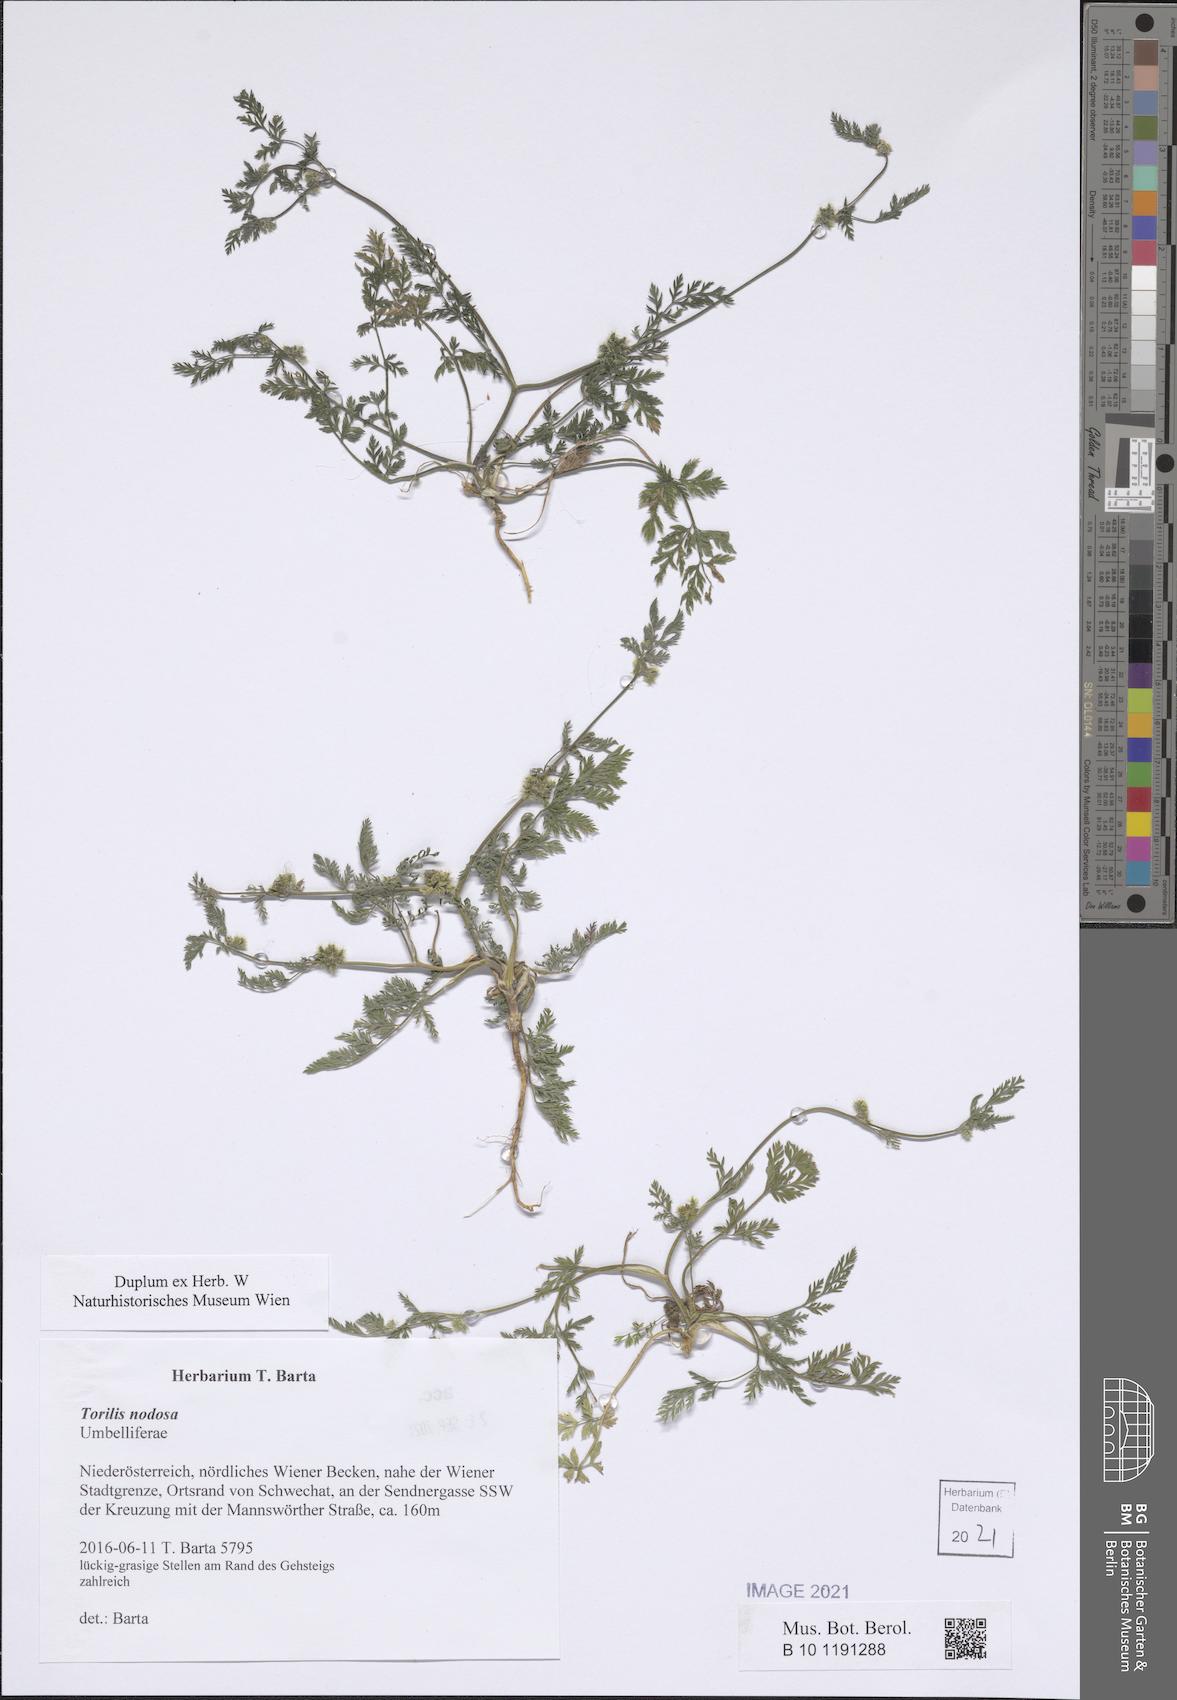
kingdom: Plantae
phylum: Tracheophyta
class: Magnoliopsida
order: Apiales
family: Apiaceae
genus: Torilis
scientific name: Torilis nodosa
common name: Knotted hedge-parsley
